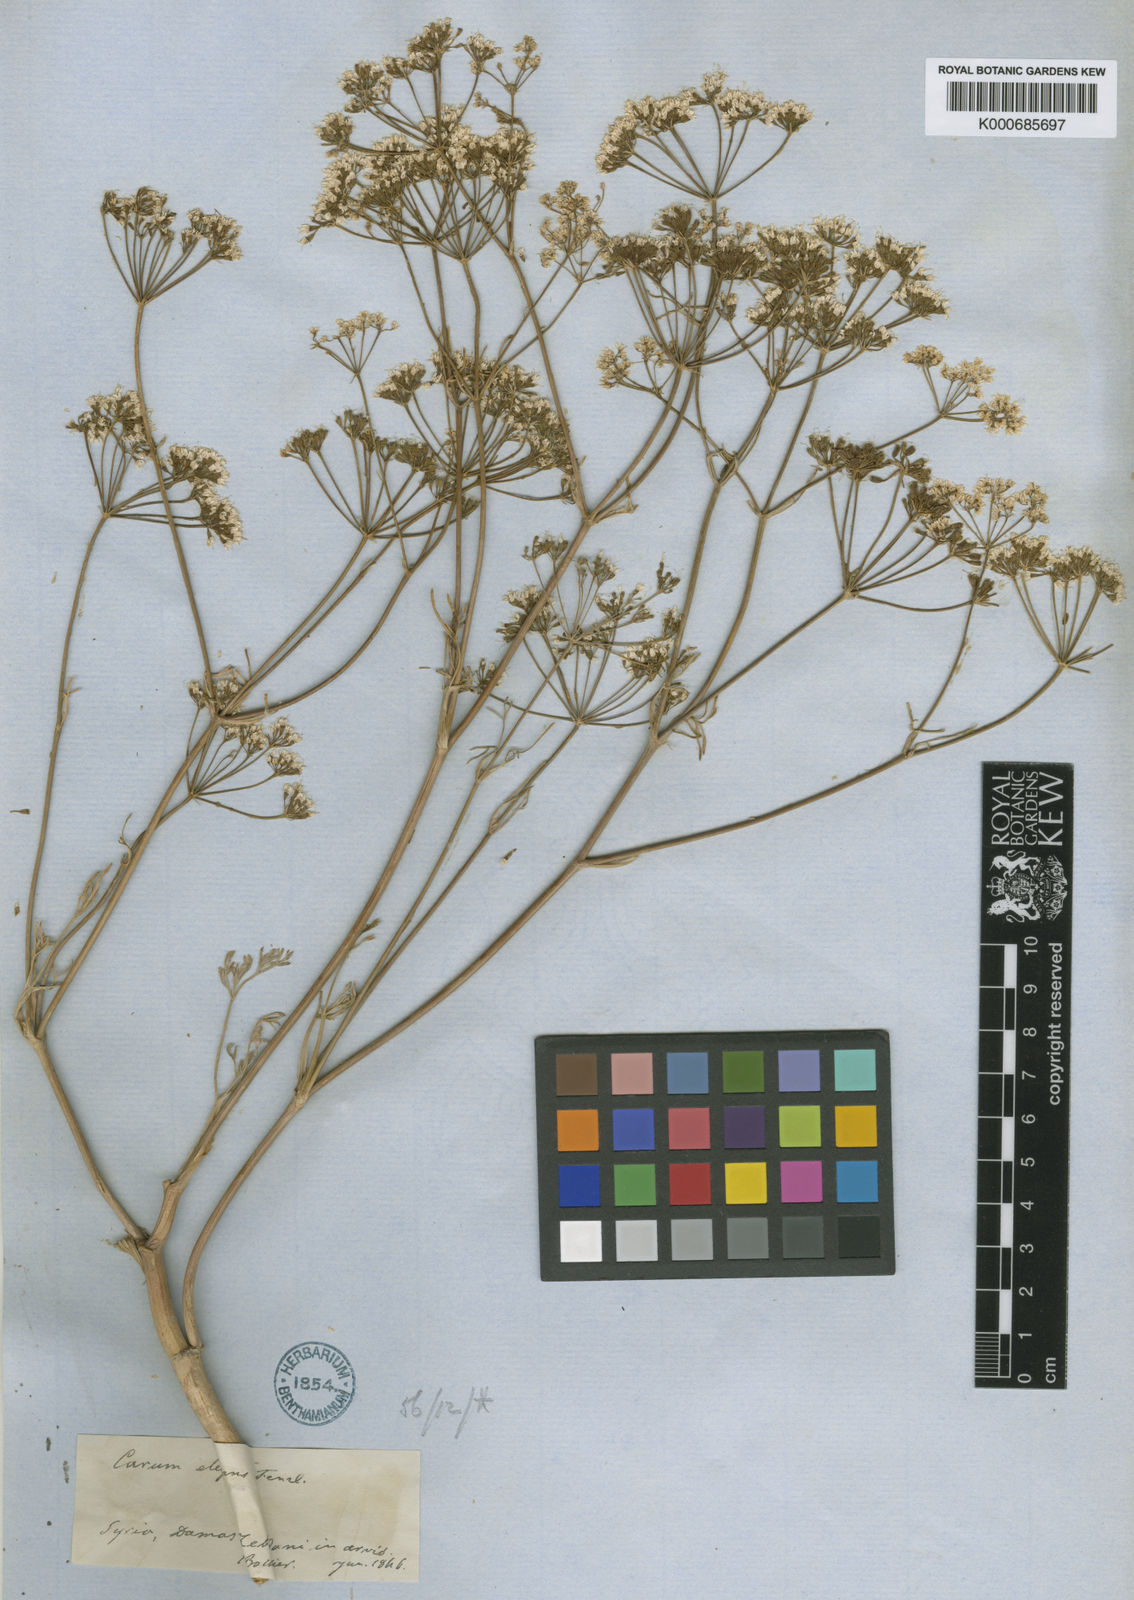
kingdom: Plantae
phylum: Tracheophyta
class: Magnoliopsida
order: Apiales
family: Apiaceae
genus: Bunium
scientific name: Bunium paucifolium
